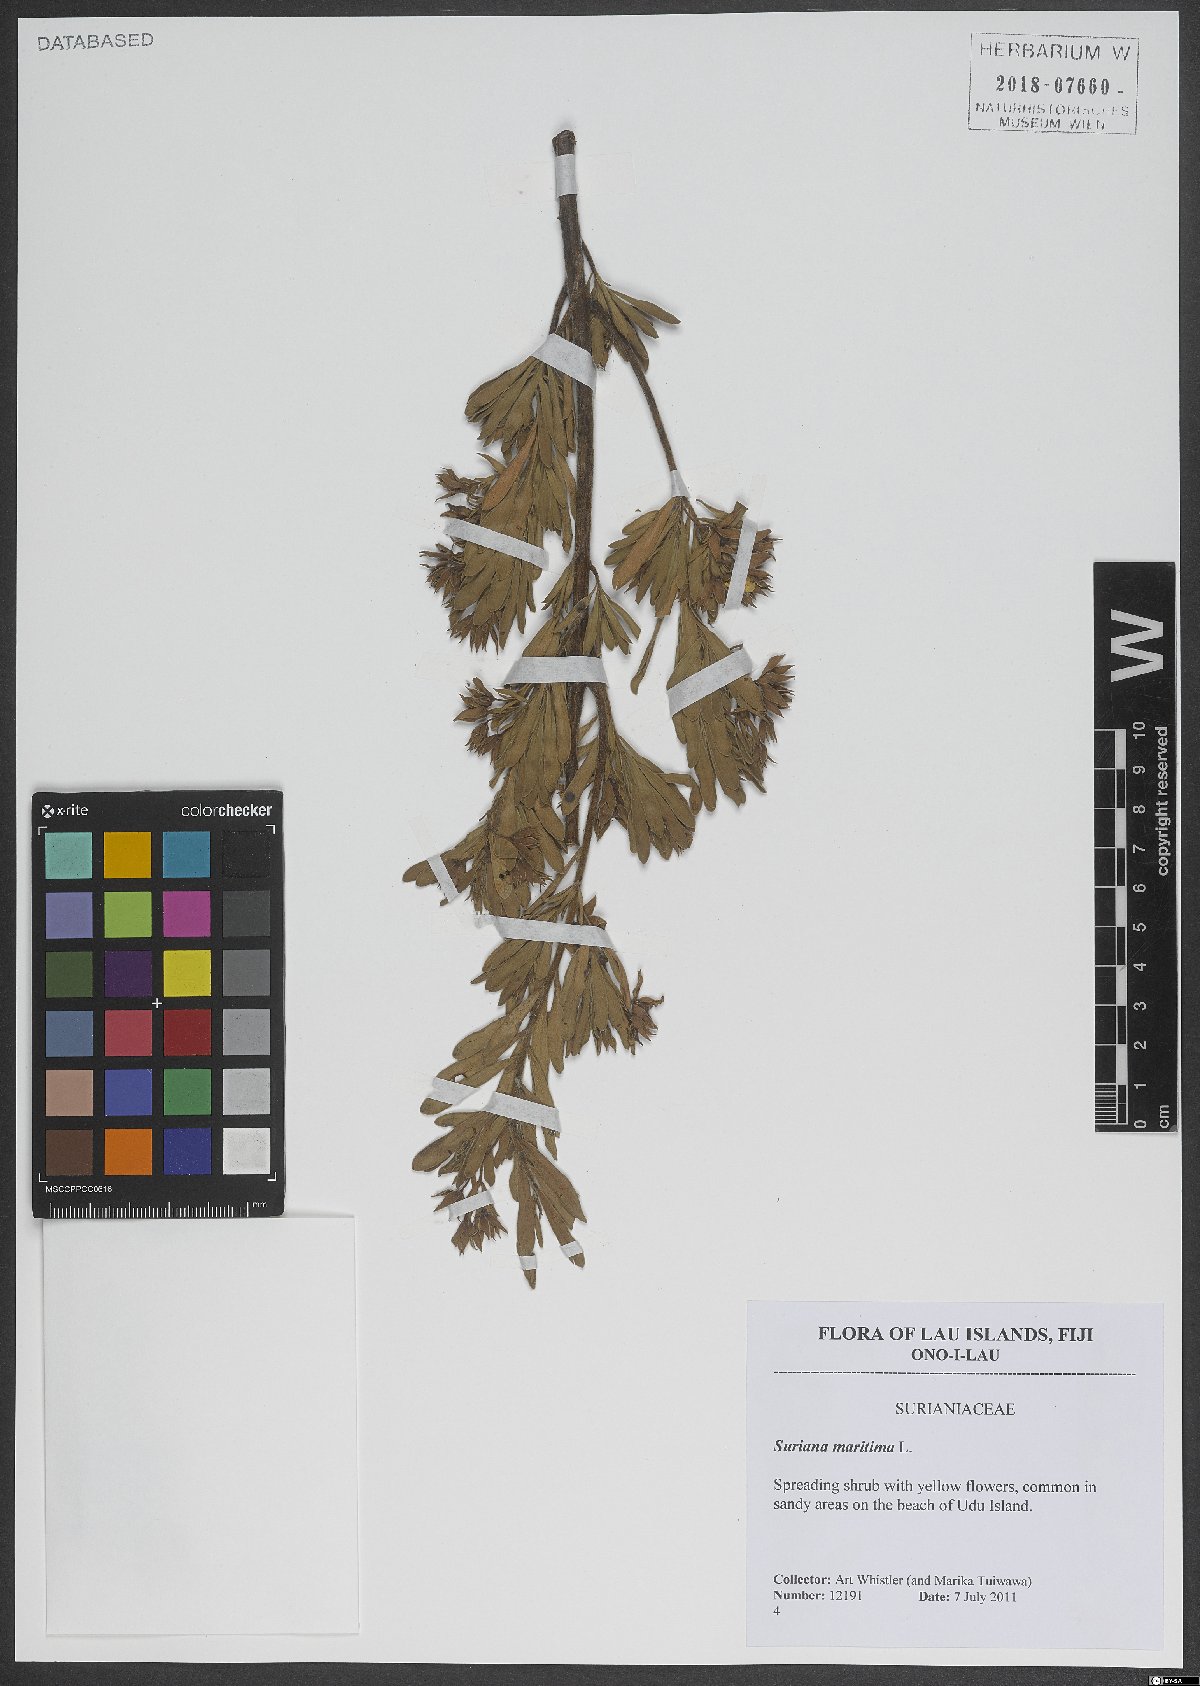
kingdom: Plantae
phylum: Tracheophyta
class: Magnoliopsida
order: Fabales
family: Surianaceae
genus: Suriana
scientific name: Suriana maritima
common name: Bay-cedar
